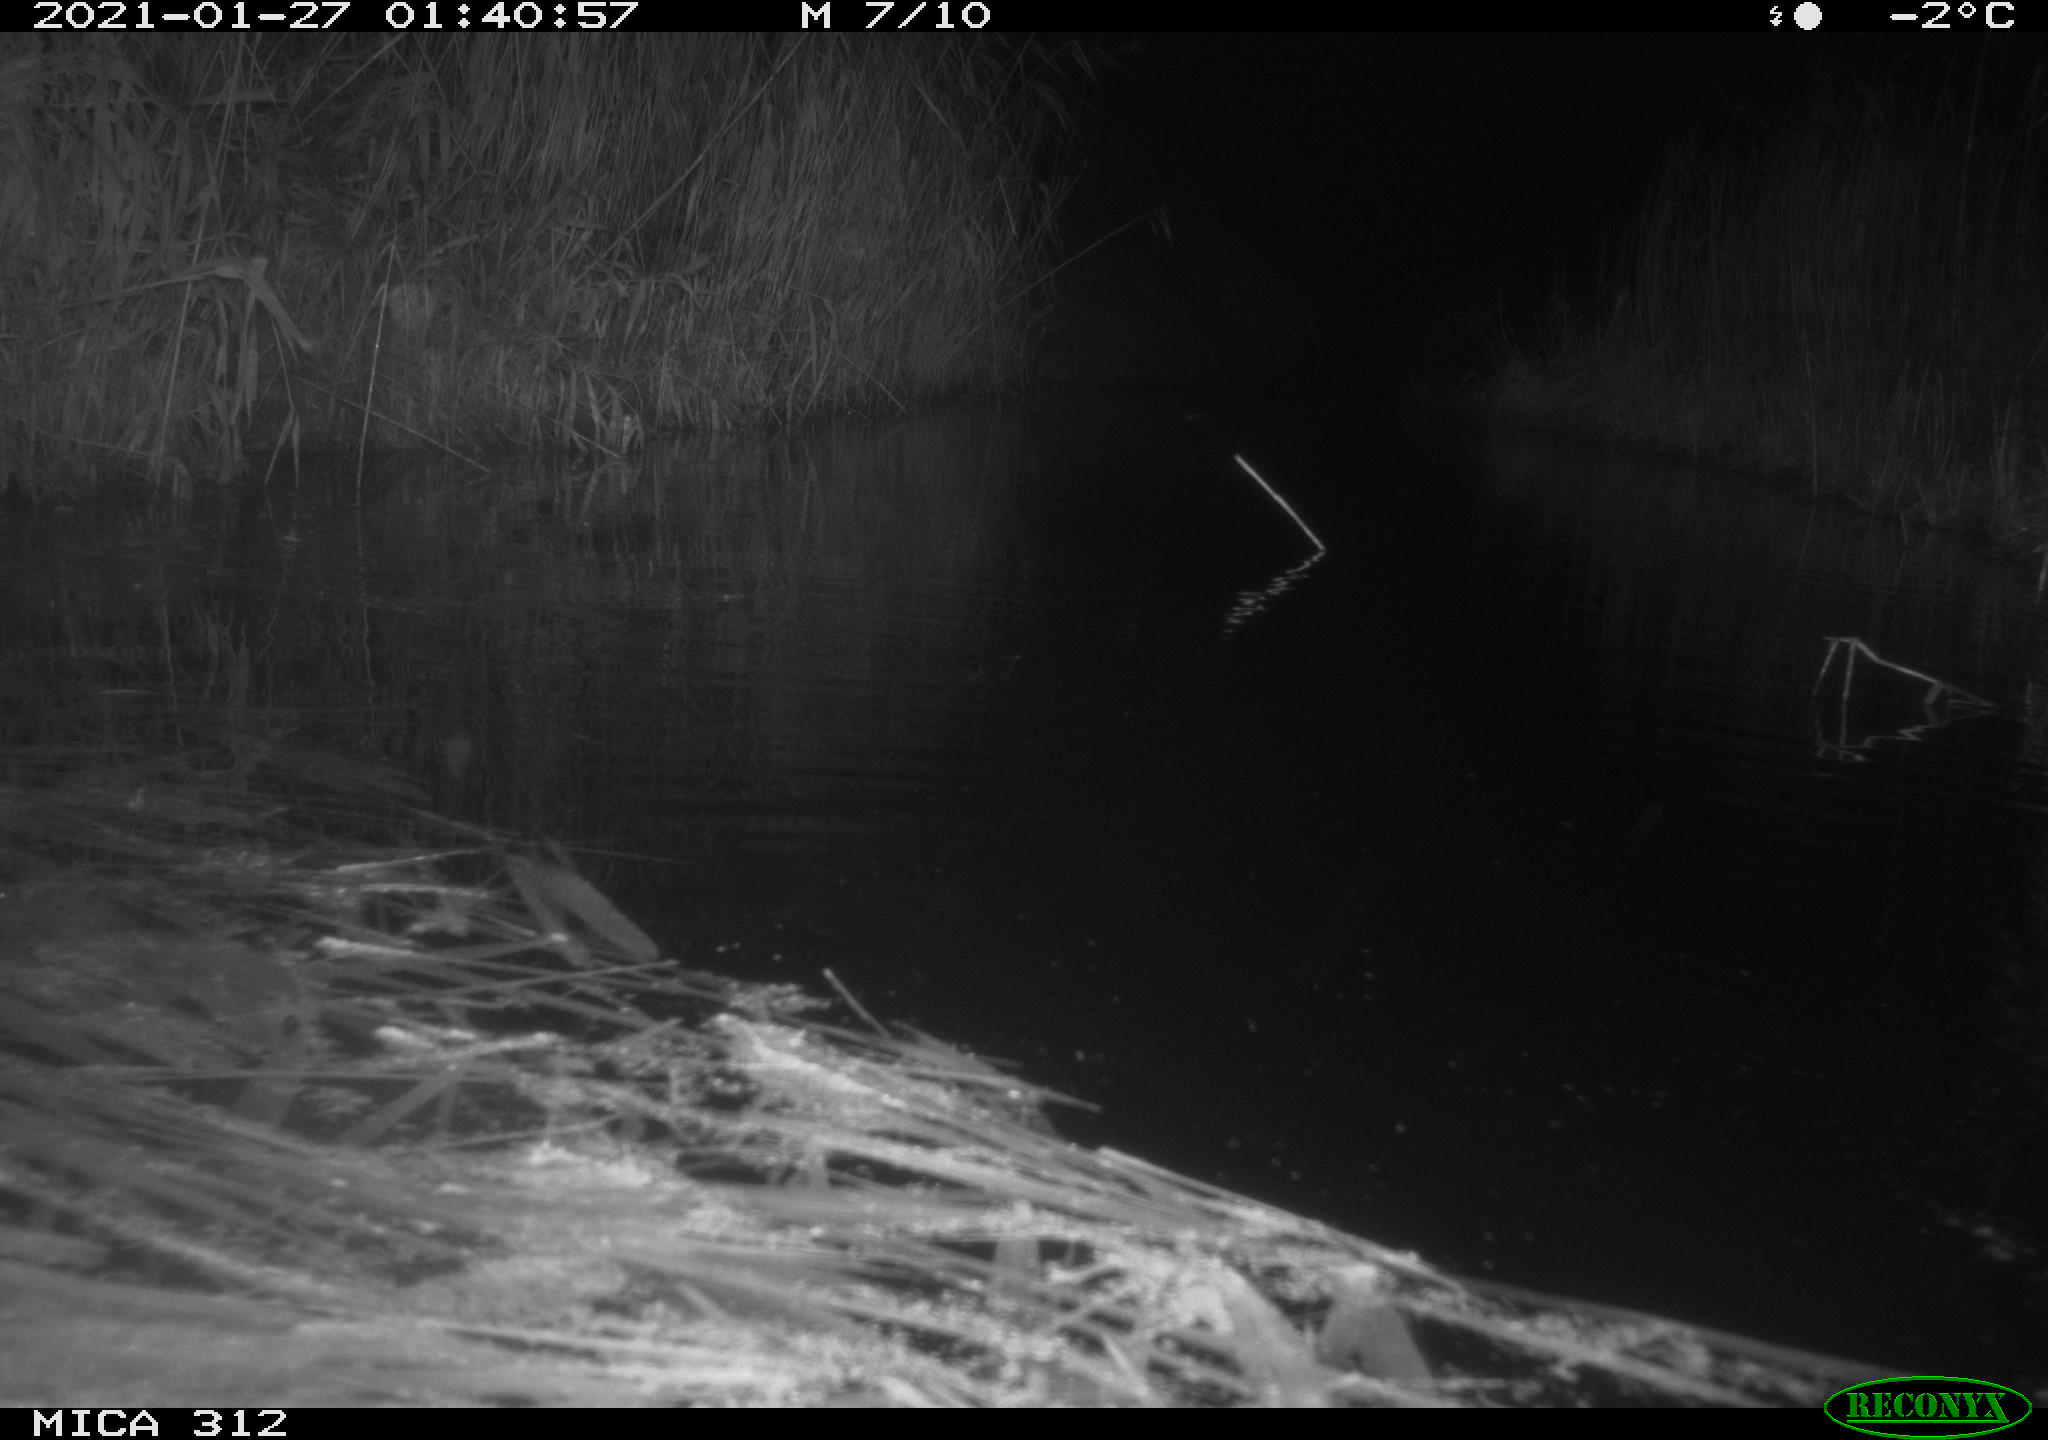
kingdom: Animalia
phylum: Chordata
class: Mammalia
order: Rodentia
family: Muridae
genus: Rattus
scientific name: Rattus norvegicus
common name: Brown rat
